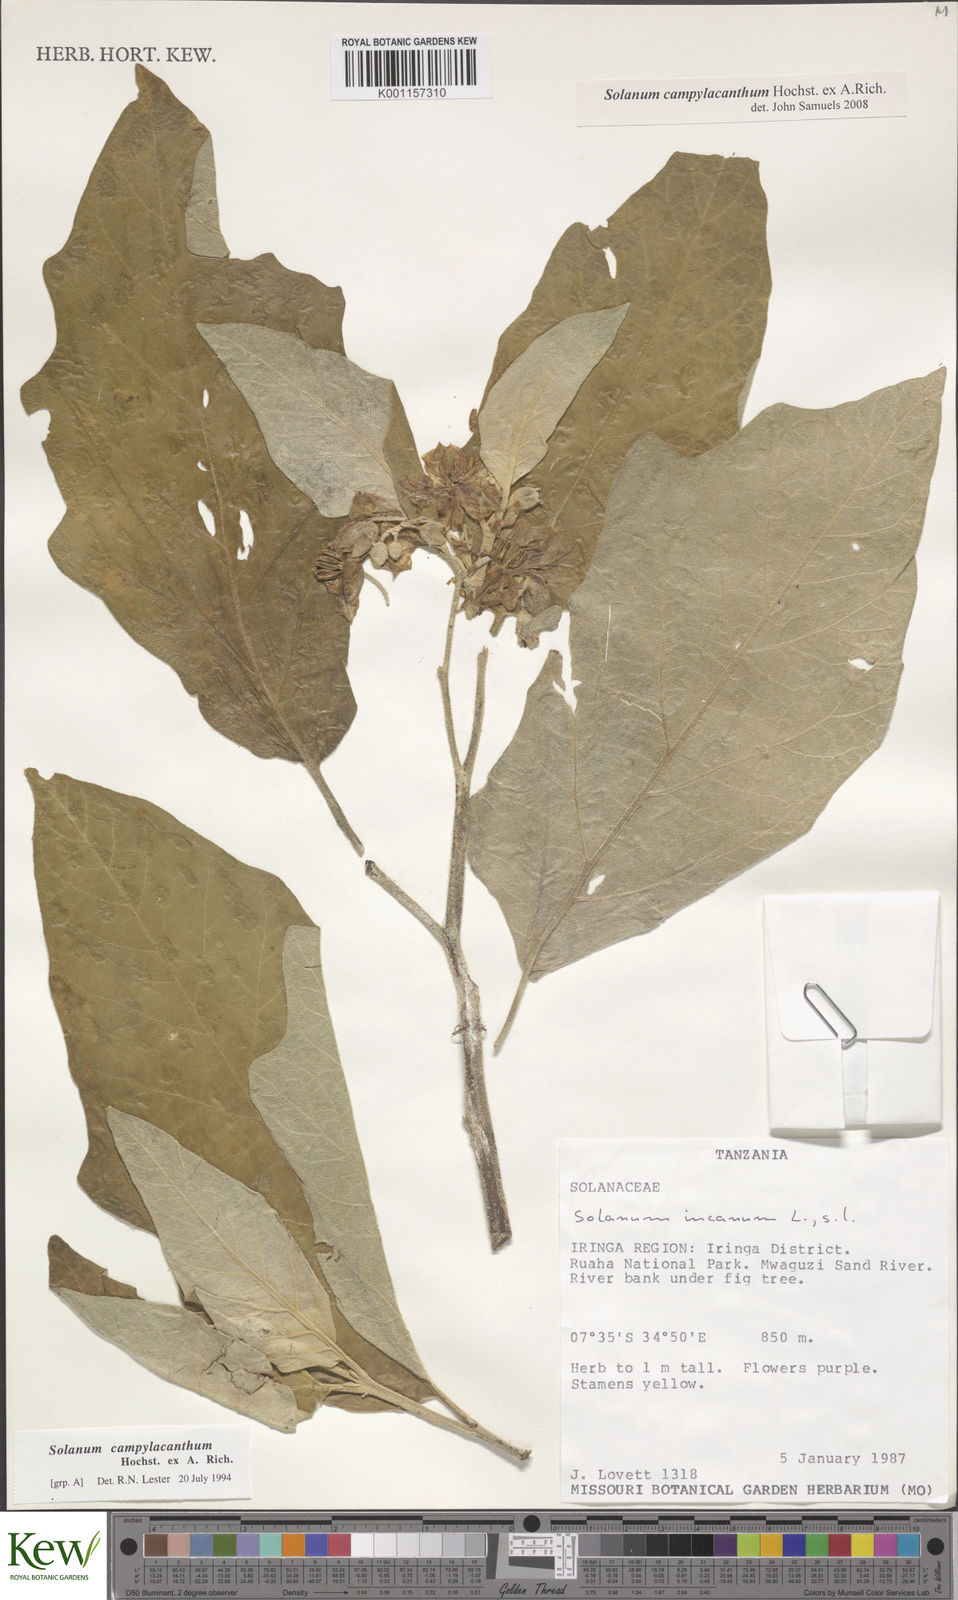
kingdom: Plantae
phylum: Tracheophyta
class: Magnoliopsida
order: Solanales
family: Solanaceae
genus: Solanum
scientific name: Solanum campylacanthum
